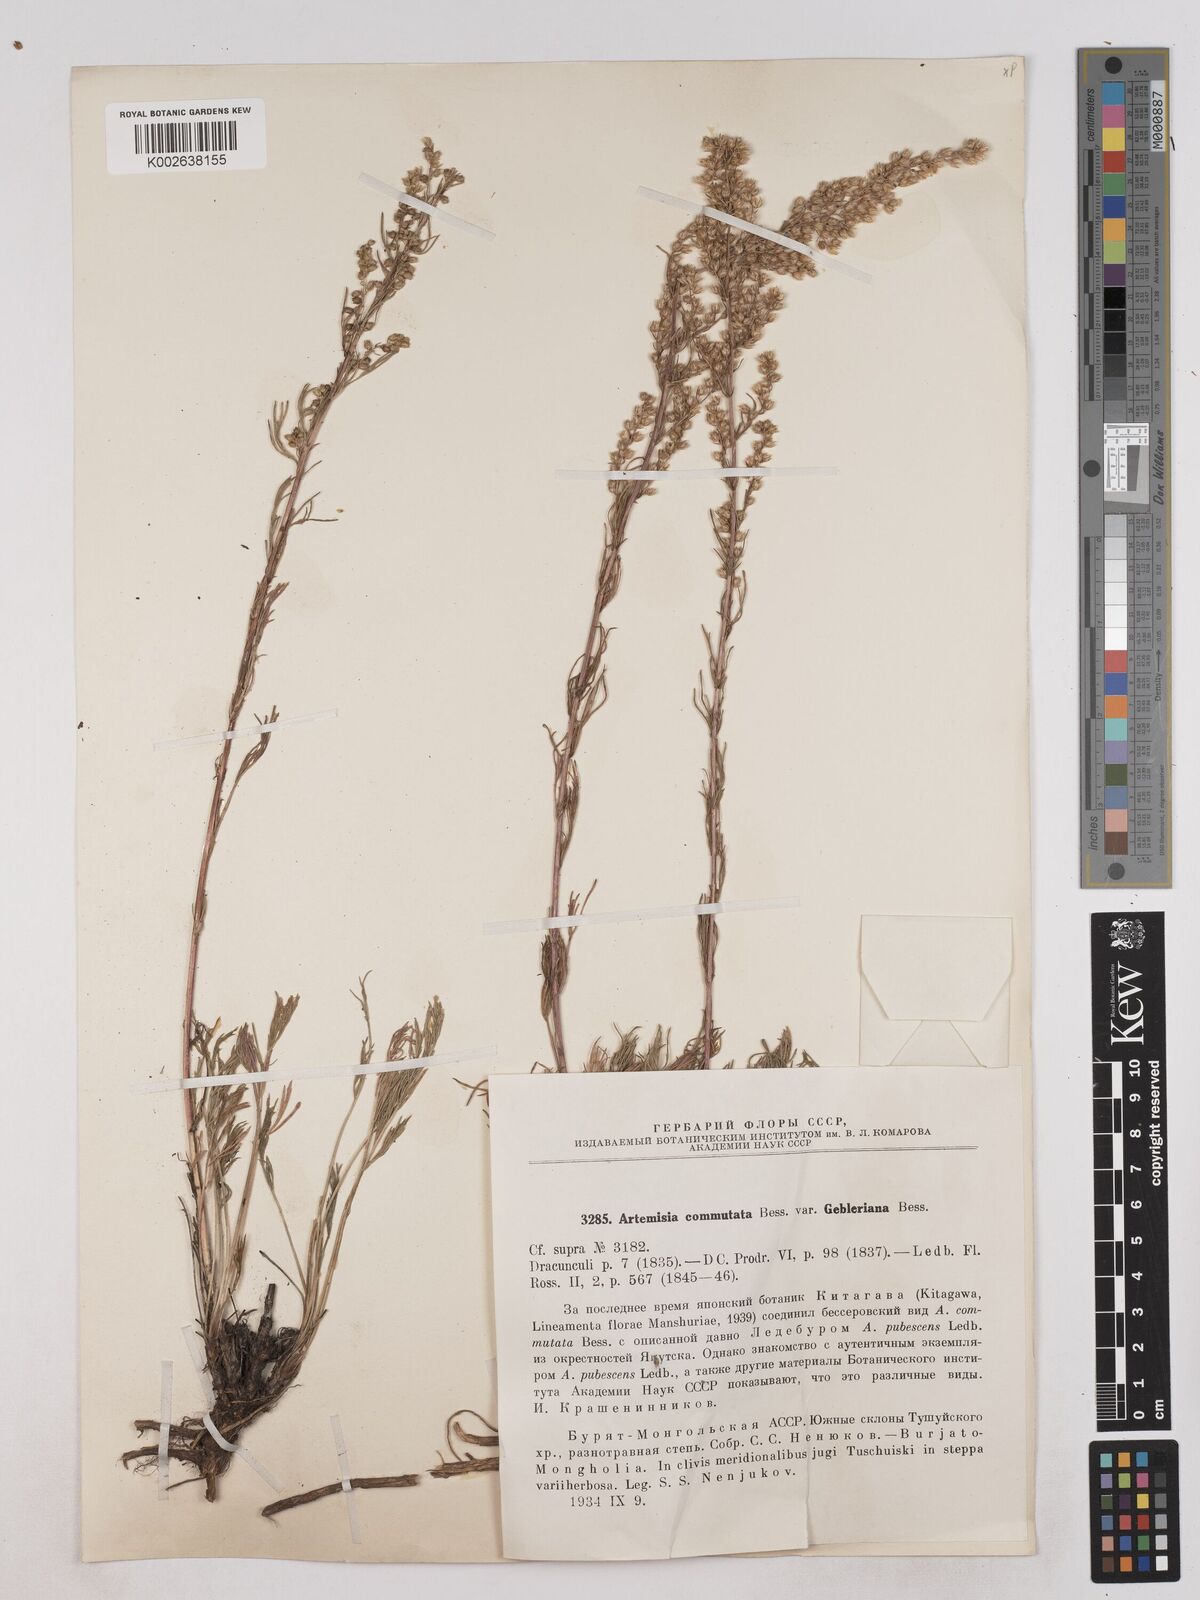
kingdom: Plantae
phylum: Tracheophyta
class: Magnoliopsida
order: Asterales
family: Asteraceae
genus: Artemisia
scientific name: Artemisia pubescens
